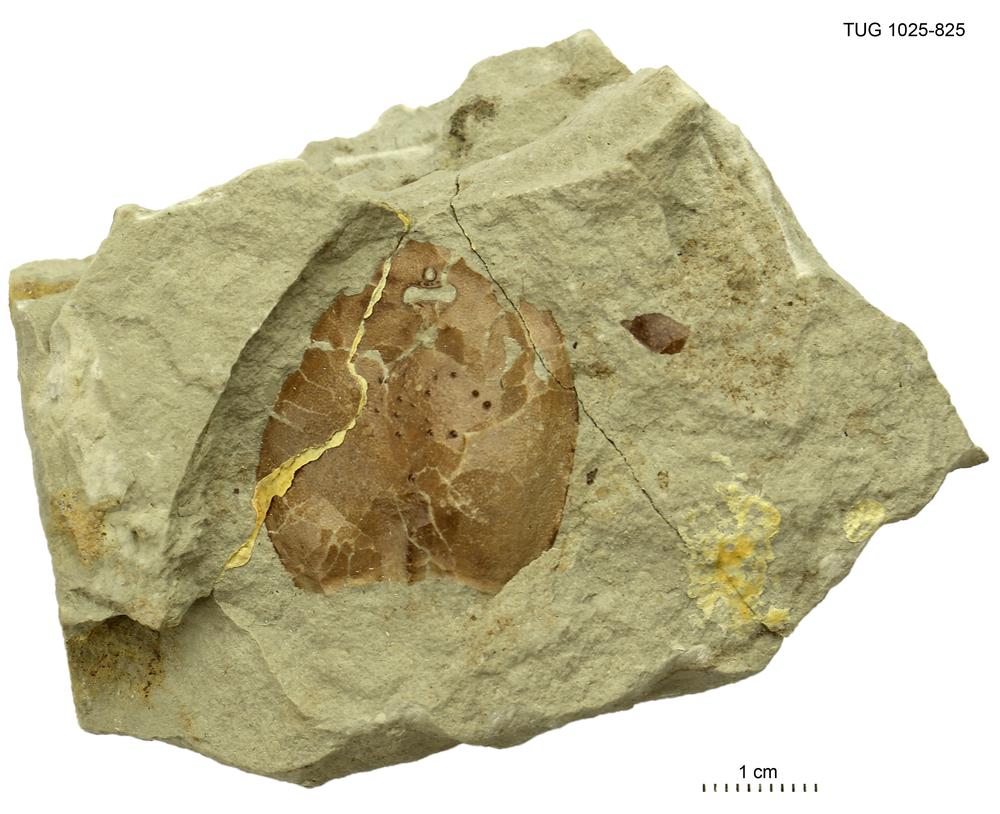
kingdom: Animalia
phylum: Chordata
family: Tremataspididae
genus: Tremataspis
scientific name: Tremataspis
